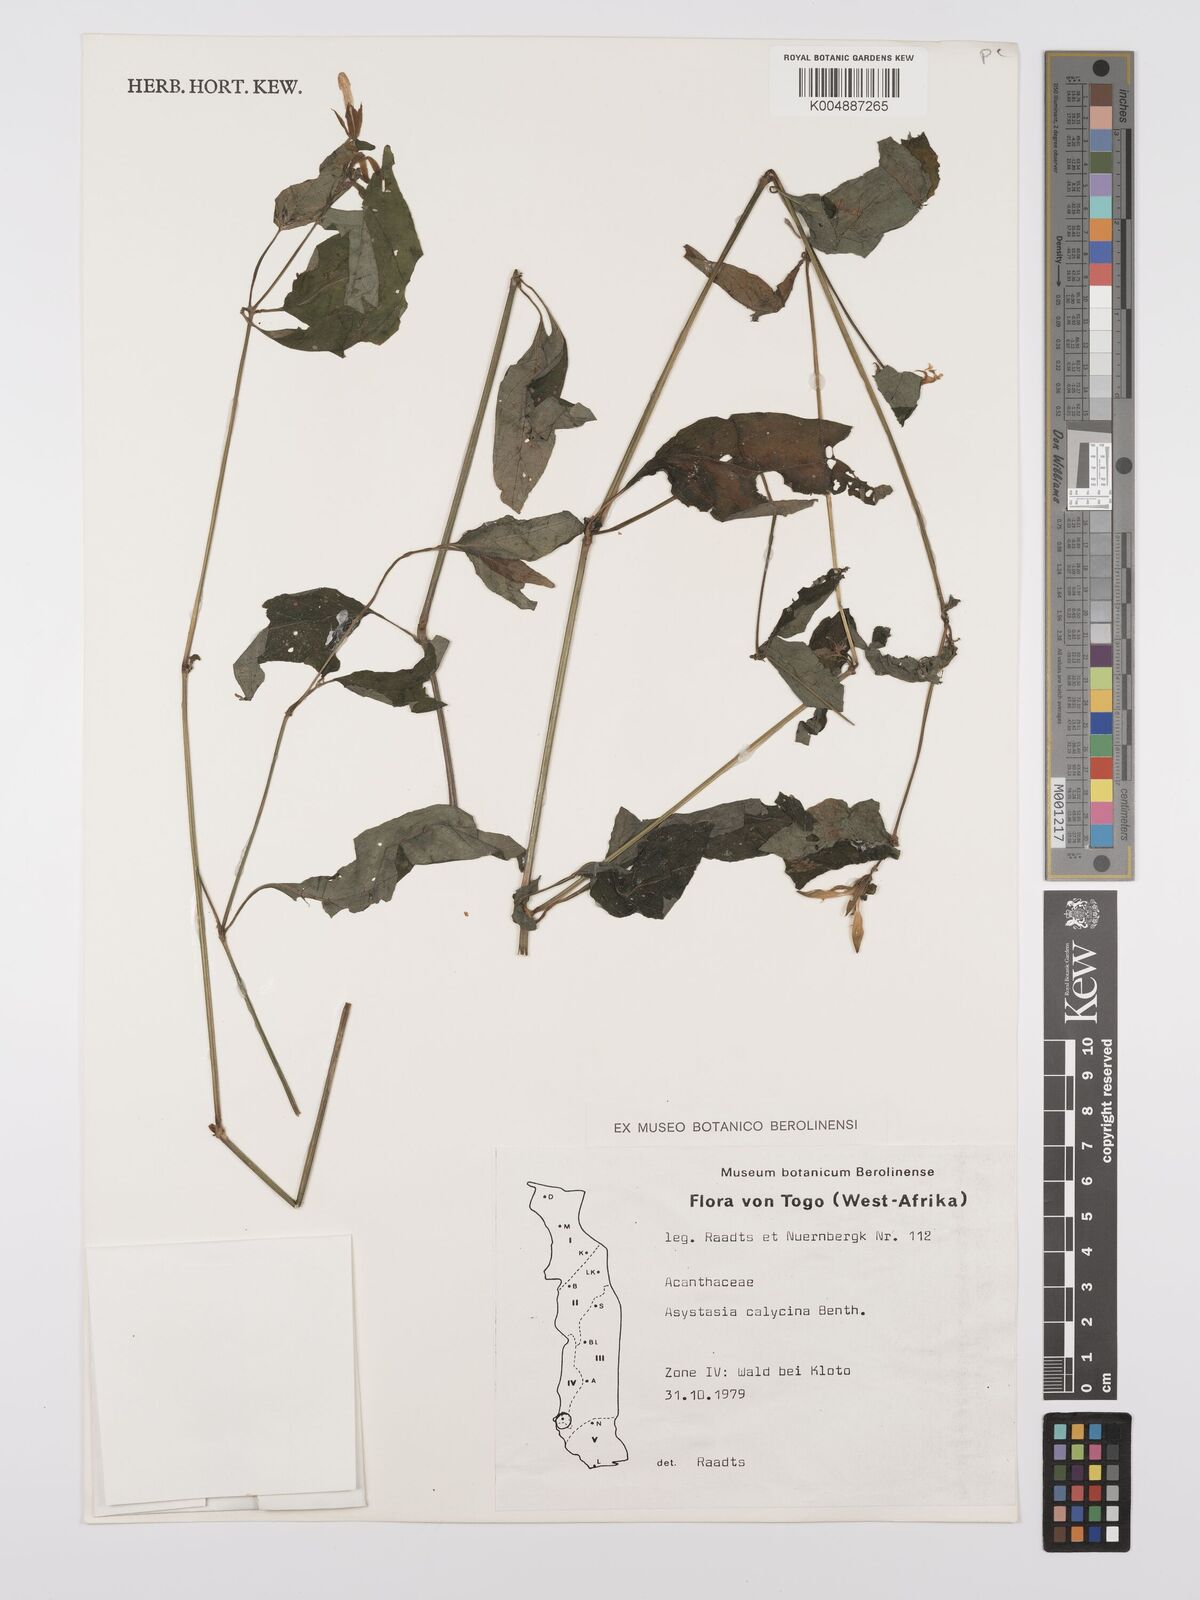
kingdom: Plantae
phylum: Tracheophyta
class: Magnoliopsida
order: Lamiales
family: Acanthaceae
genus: Asystasia
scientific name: Asystasia buettneri
